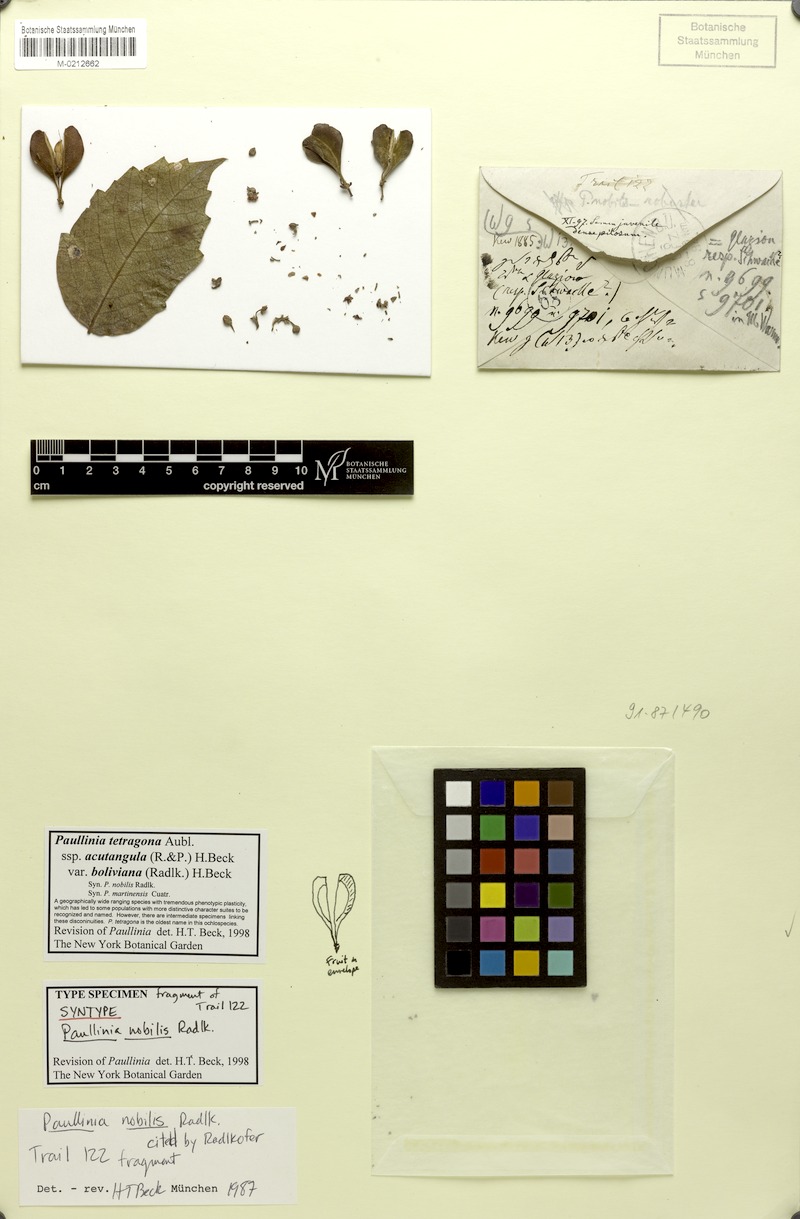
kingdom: Plantae
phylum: Tracheophyta
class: Magnoliopsida
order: Sapindales
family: Sapindaceae
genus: Paullinia
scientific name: Paullinia tetragona
